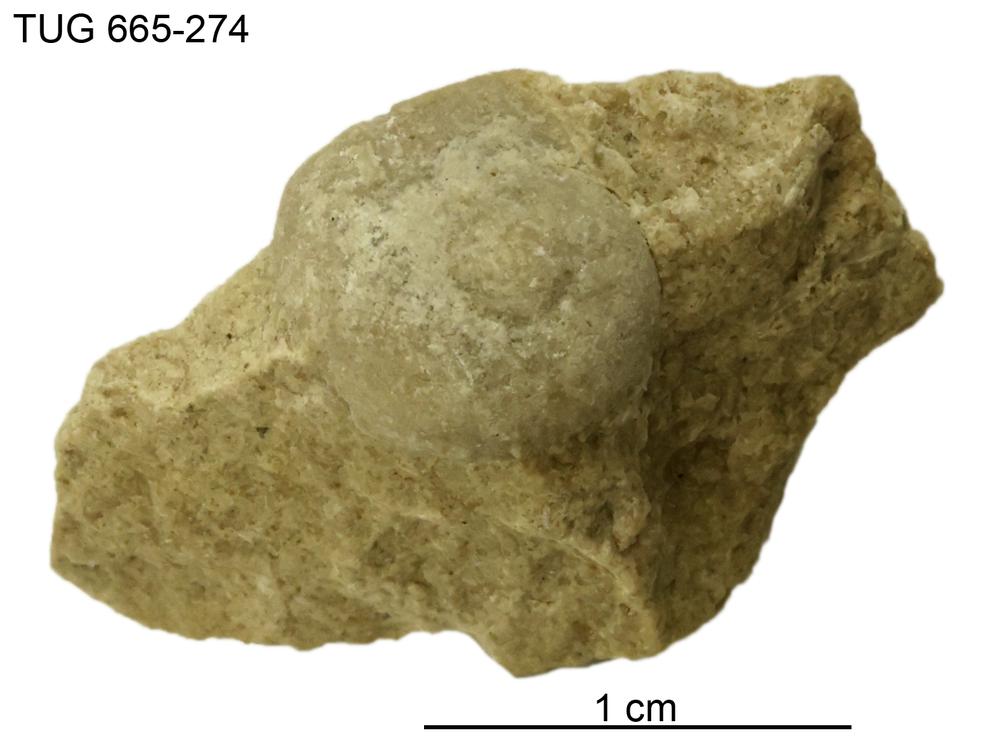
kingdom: Animalia
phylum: Mollusca
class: Gastropoda
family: Euomphalidae
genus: Straparollus
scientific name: Straparollus
